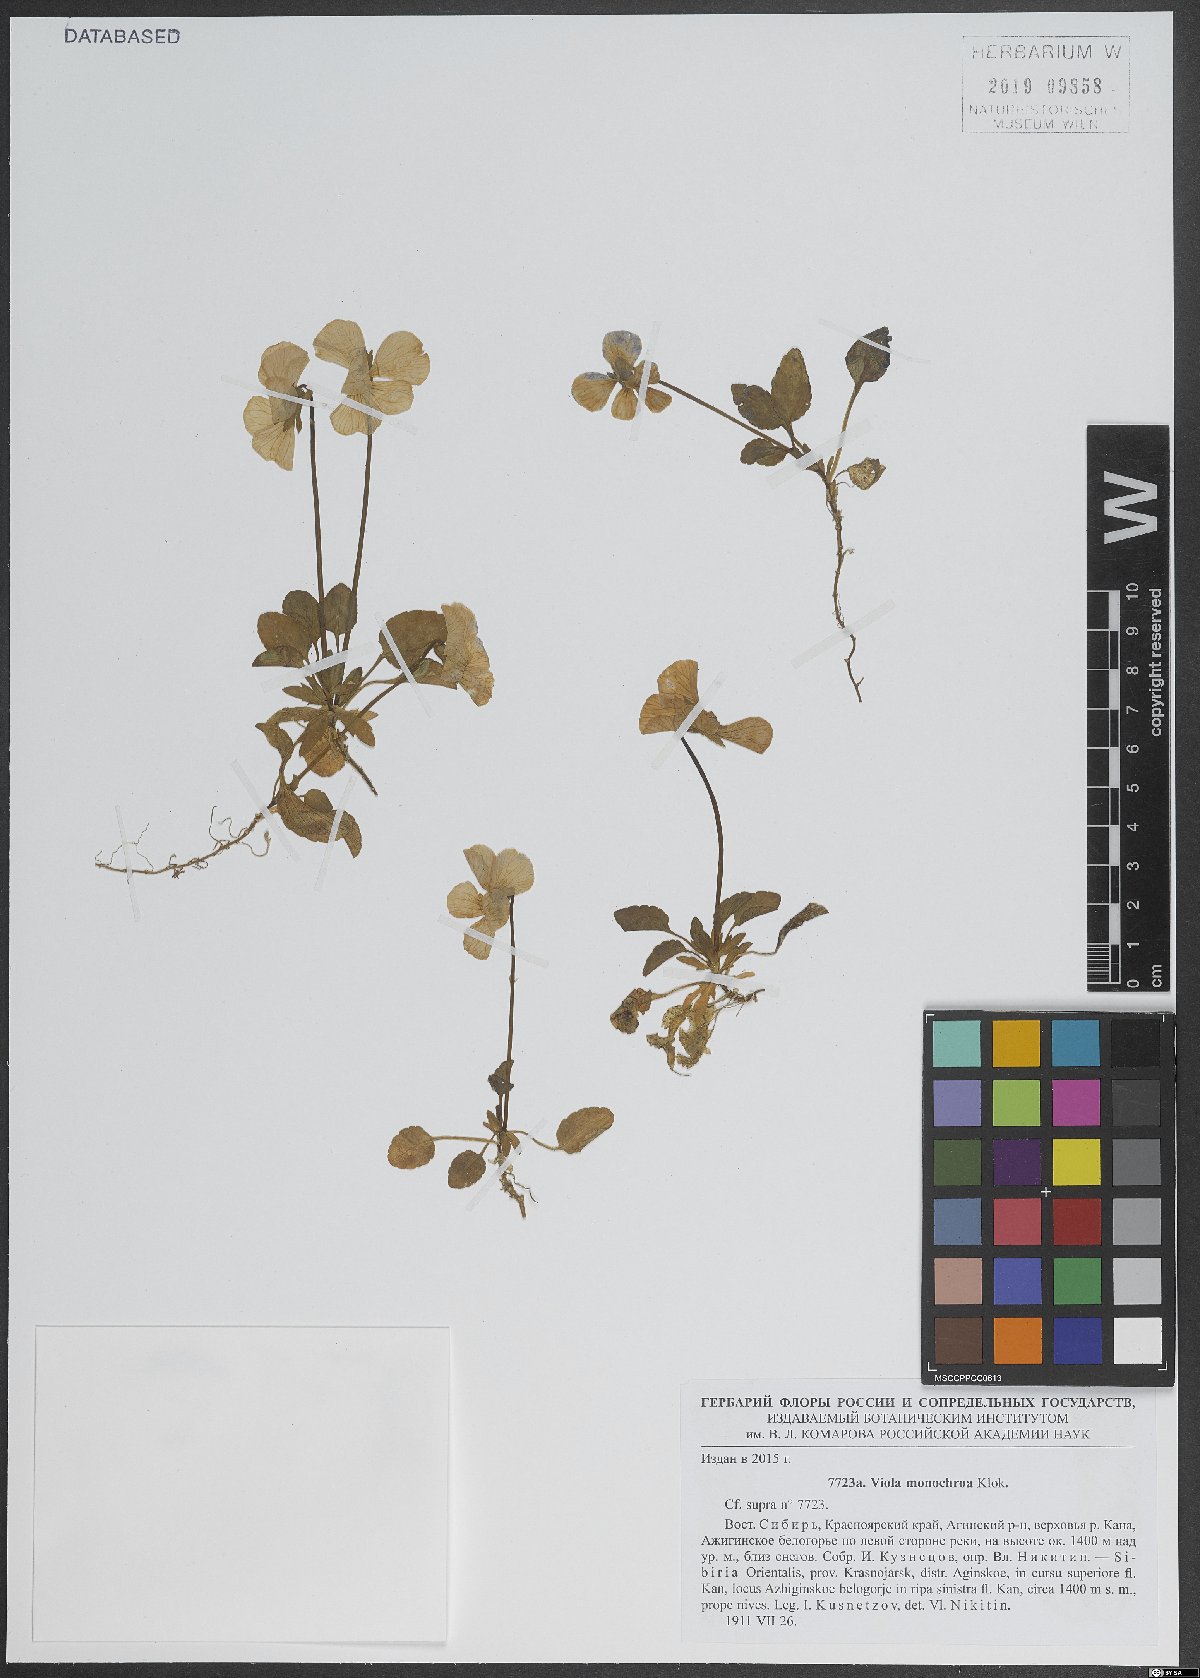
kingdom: Plantae
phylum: Tracheophyta
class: Magnoliopsida
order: Malpighiales
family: Violaceae
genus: Viola
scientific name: Viola altaica
